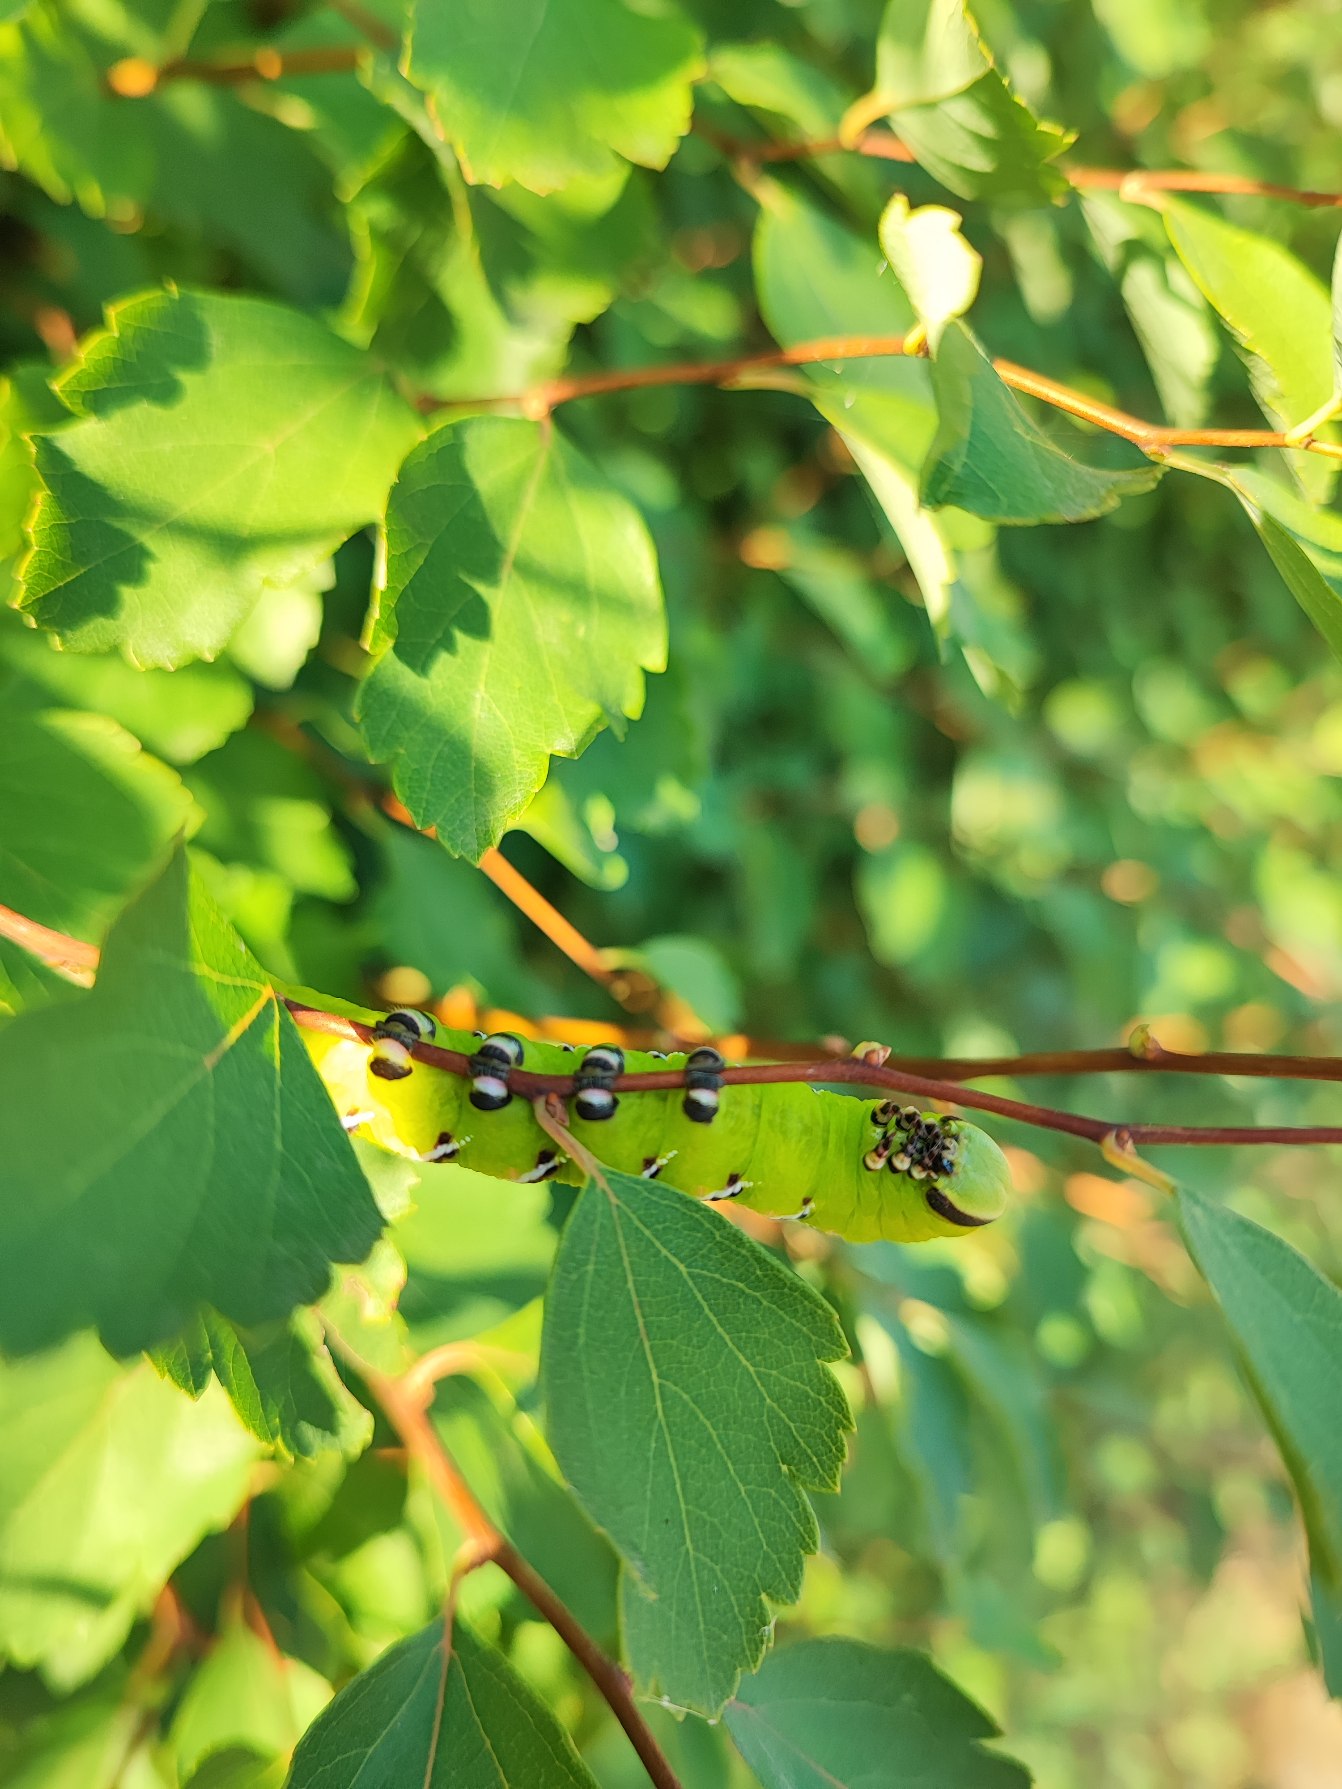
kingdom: Animalia
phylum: Arthropoda
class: Insecta
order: Lepidoptera
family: Sphingidae
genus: Sphinx
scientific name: Sphinx ligustri
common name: Ligustersværmer
